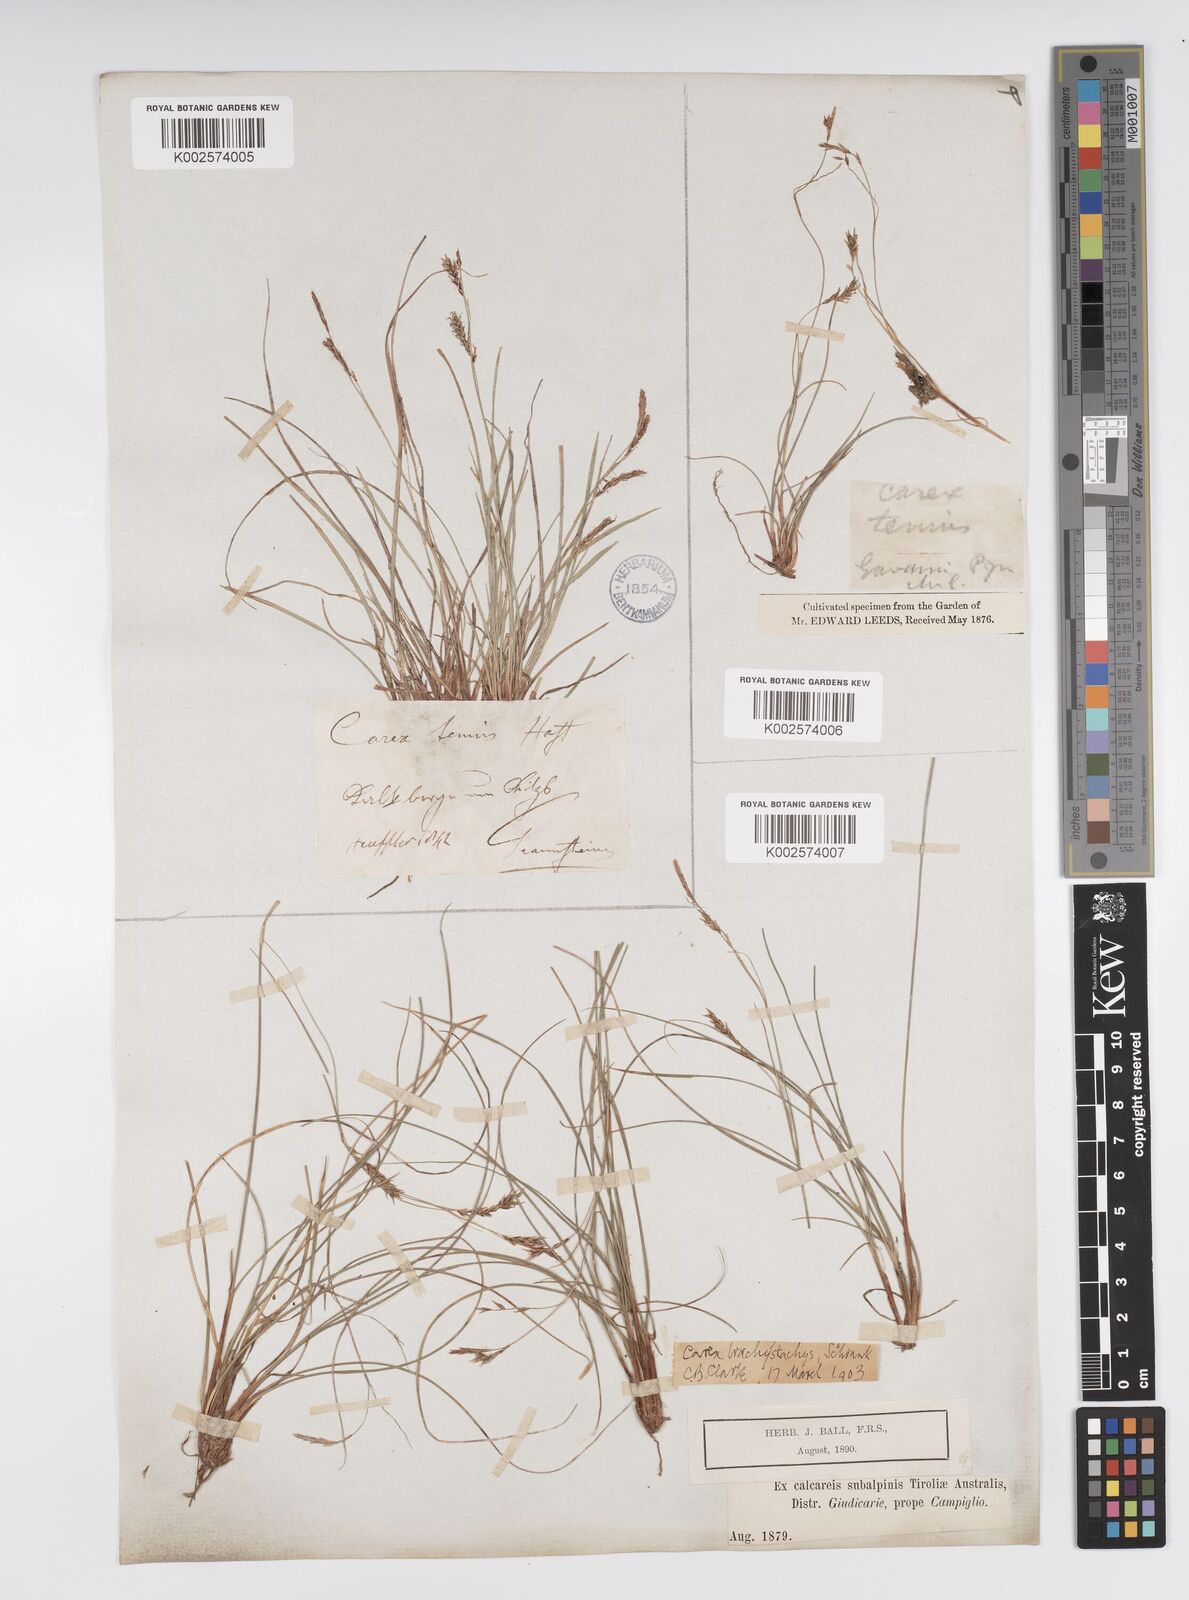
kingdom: Plantae
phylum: Tracheophyta
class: Liliopsida
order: Poales
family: Cyperaceae
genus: Carex
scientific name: Carex brachystachys
